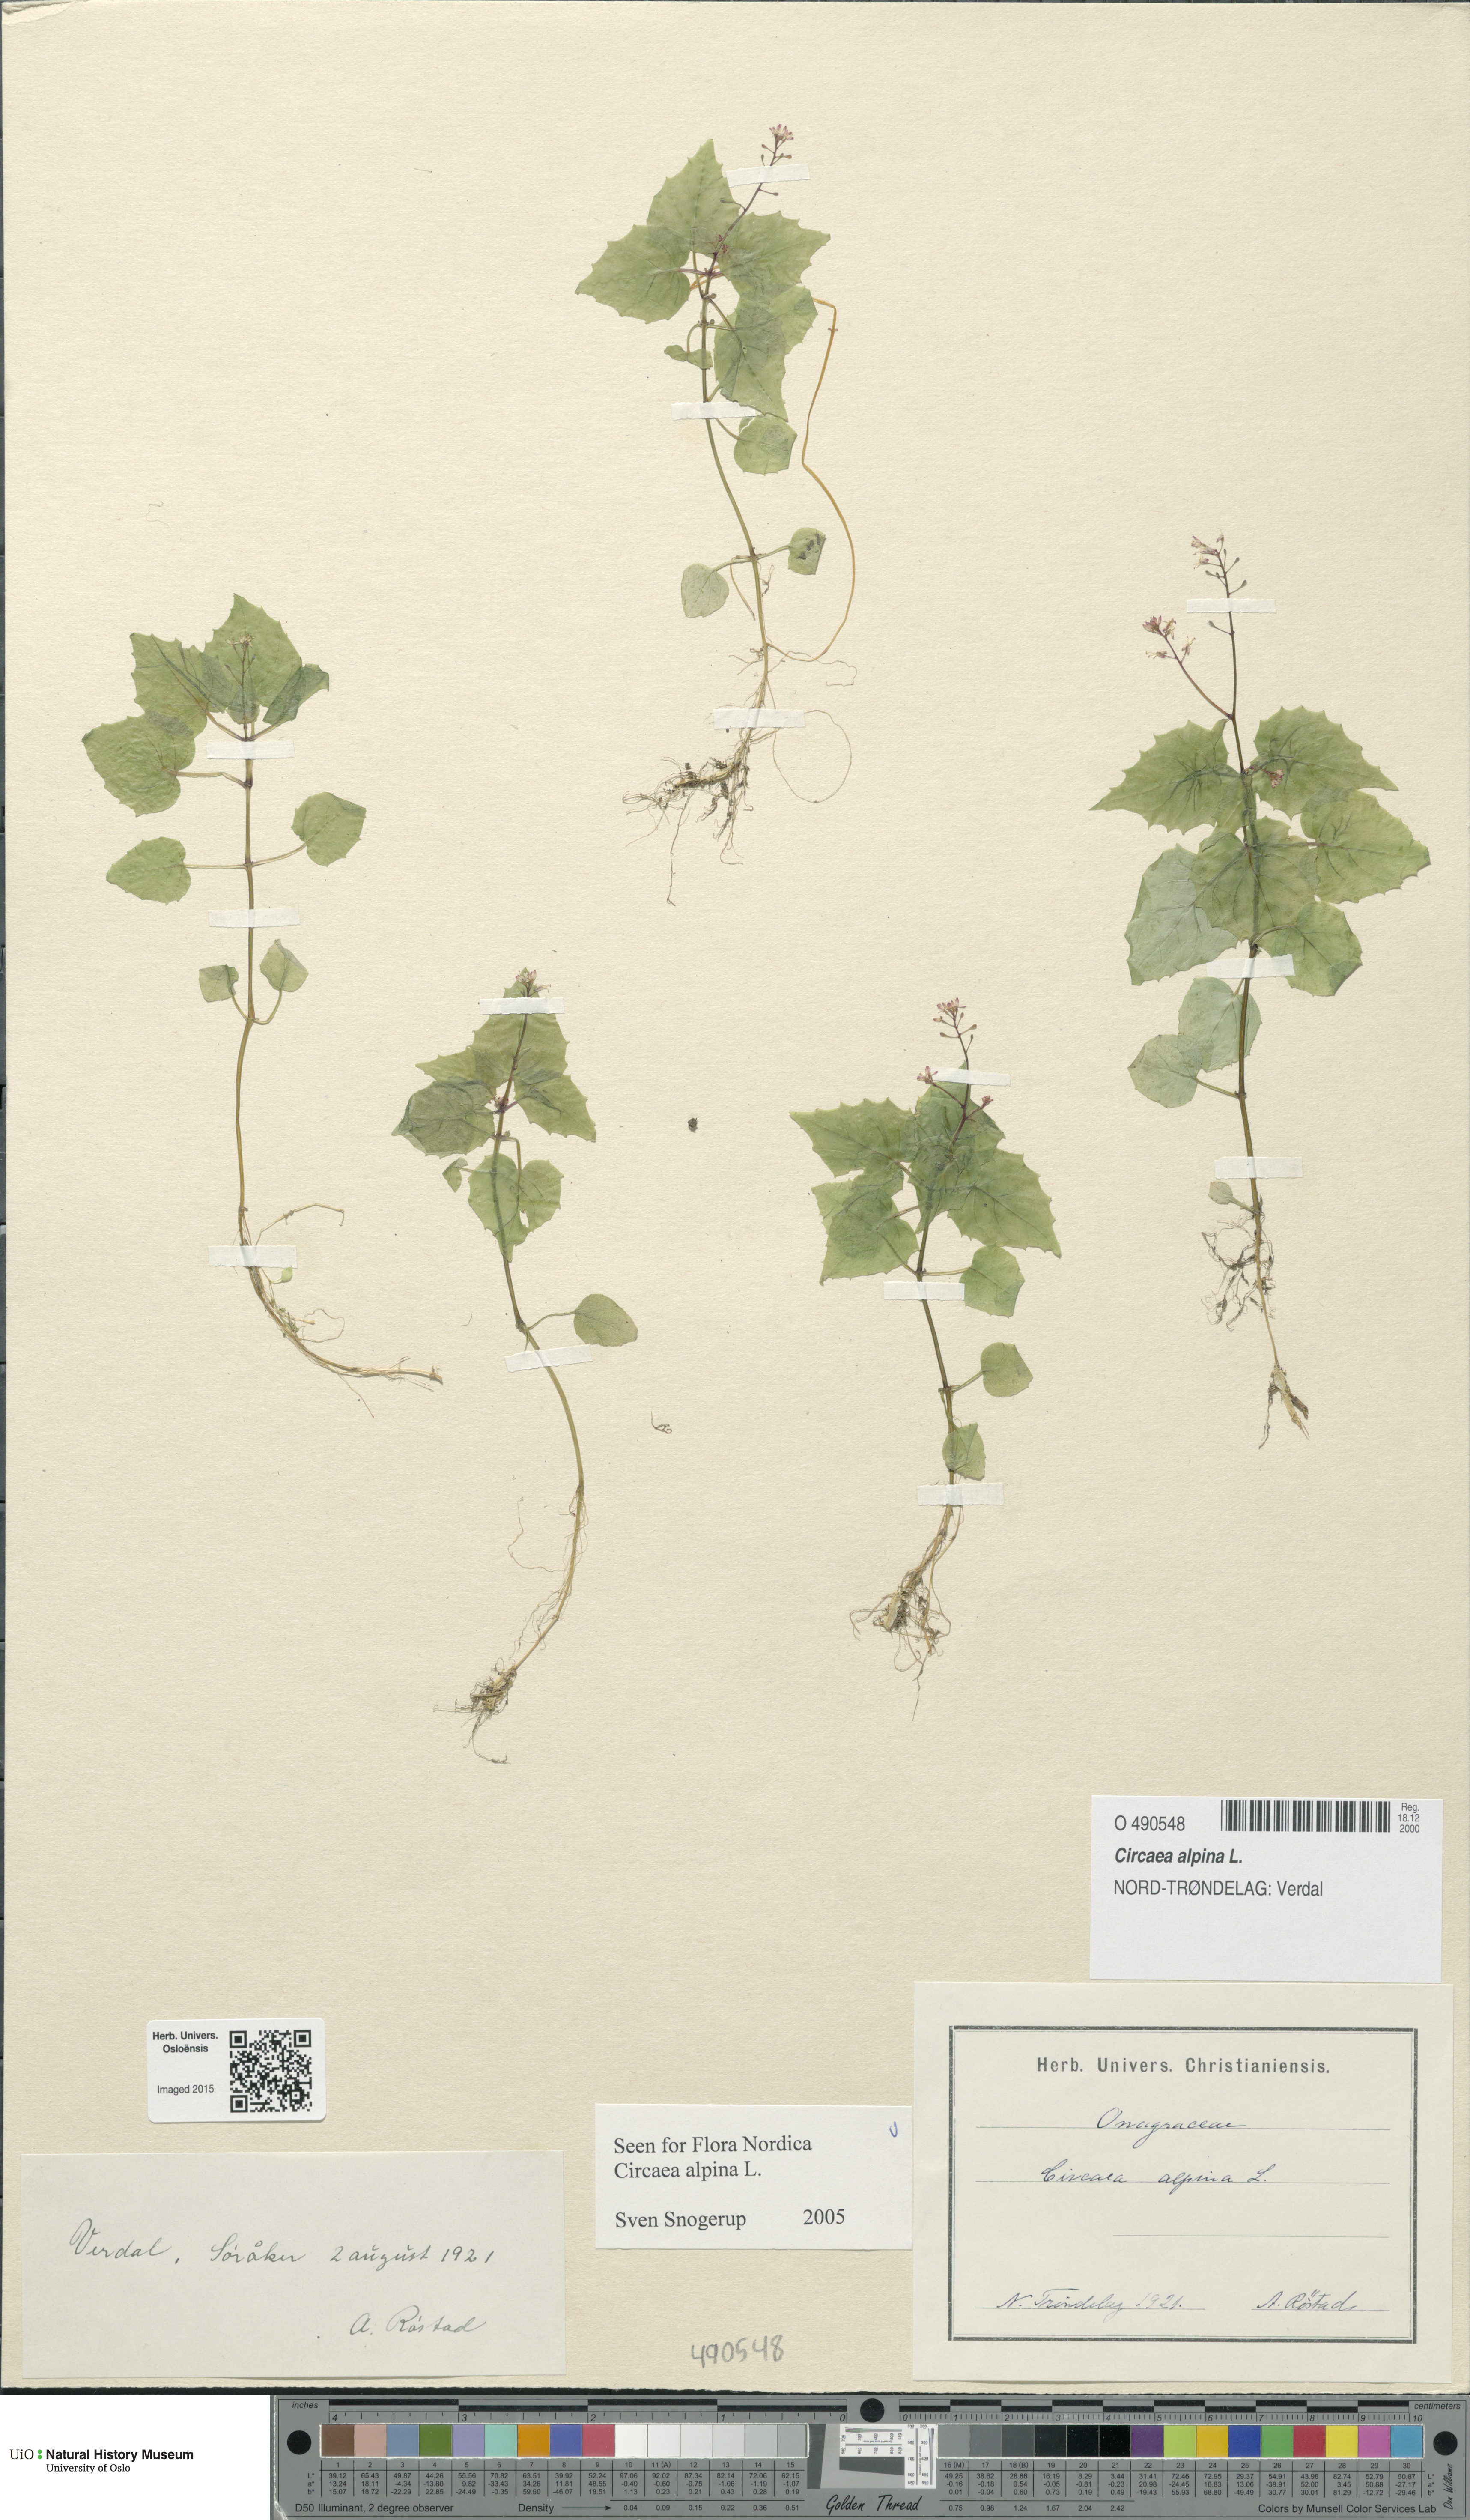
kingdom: Plantae
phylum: Tracheophyta
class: Magnoliopsida
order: Myrtales
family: Onagraceae
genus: Circaea
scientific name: Circaea alpina
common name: Alpine enchanter's-nightshade
